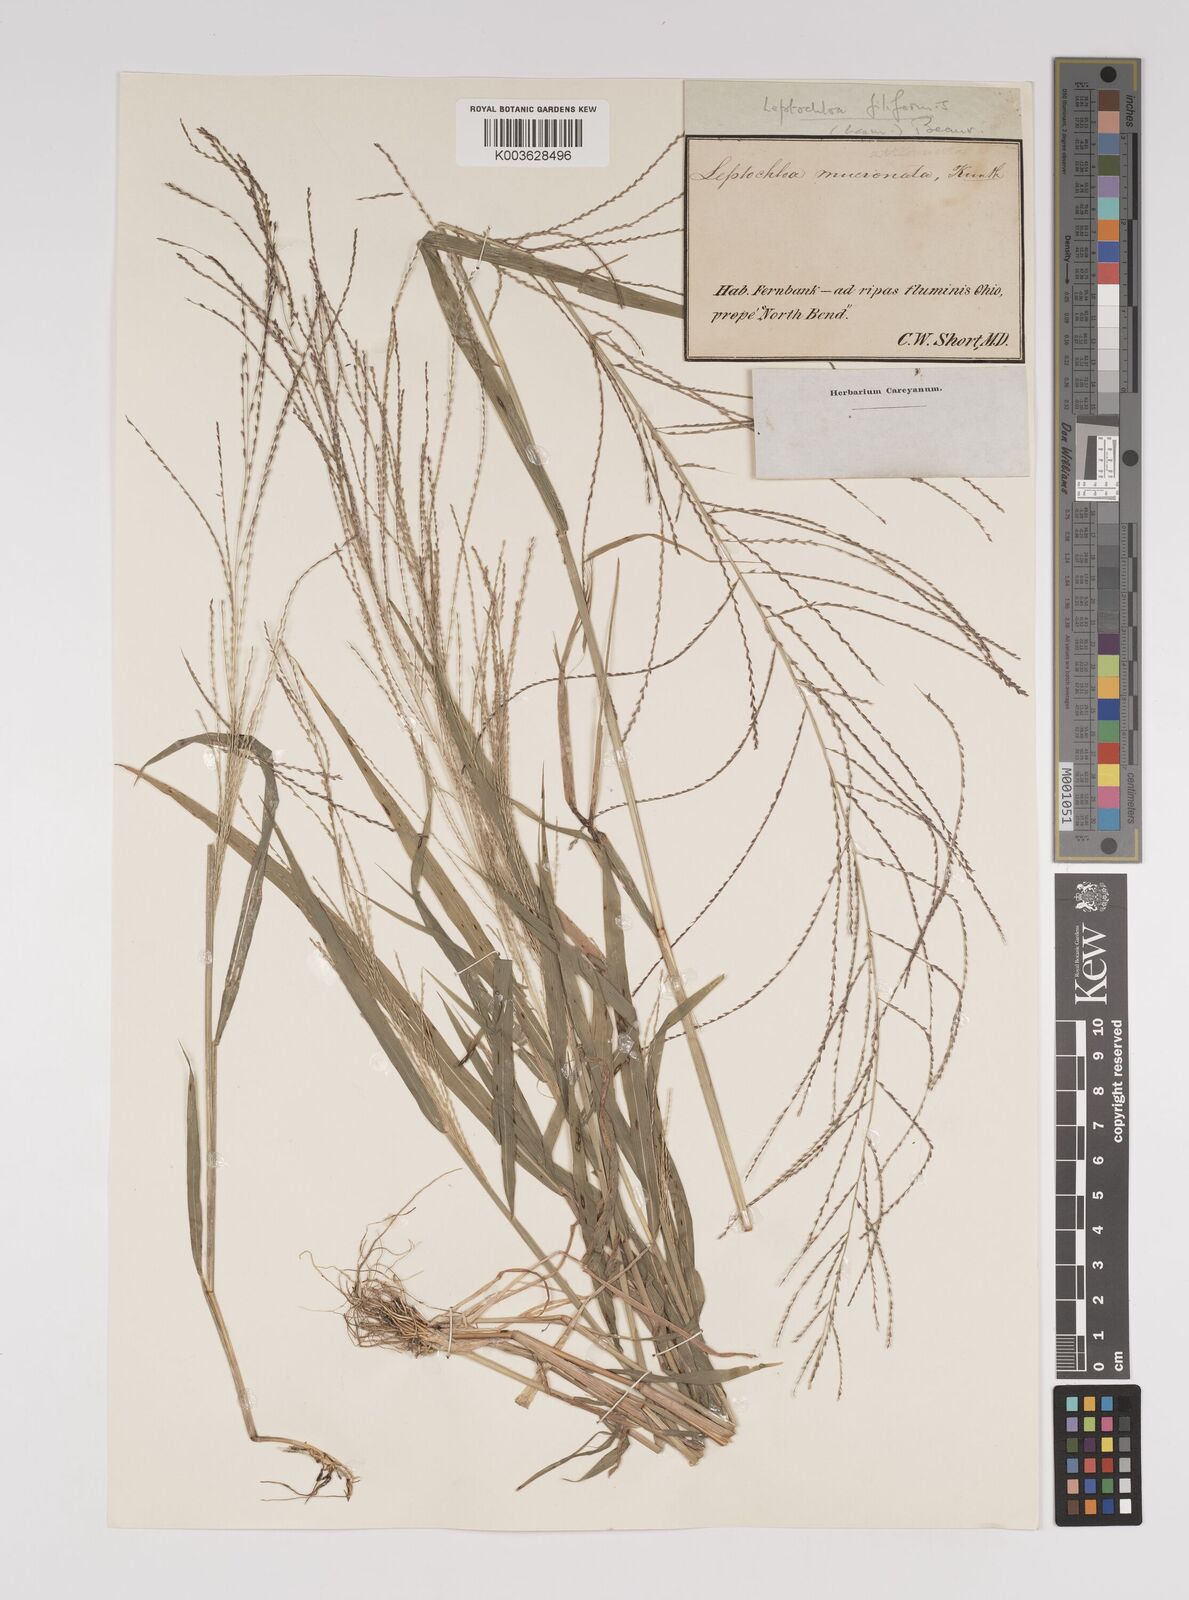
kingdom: Plantae
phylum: Tracheophyta
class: Liliopsida
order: Poales
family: Poaceae
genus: Leptochloa
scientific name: Leptochloa panicea
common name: Mucronate sprangletop
